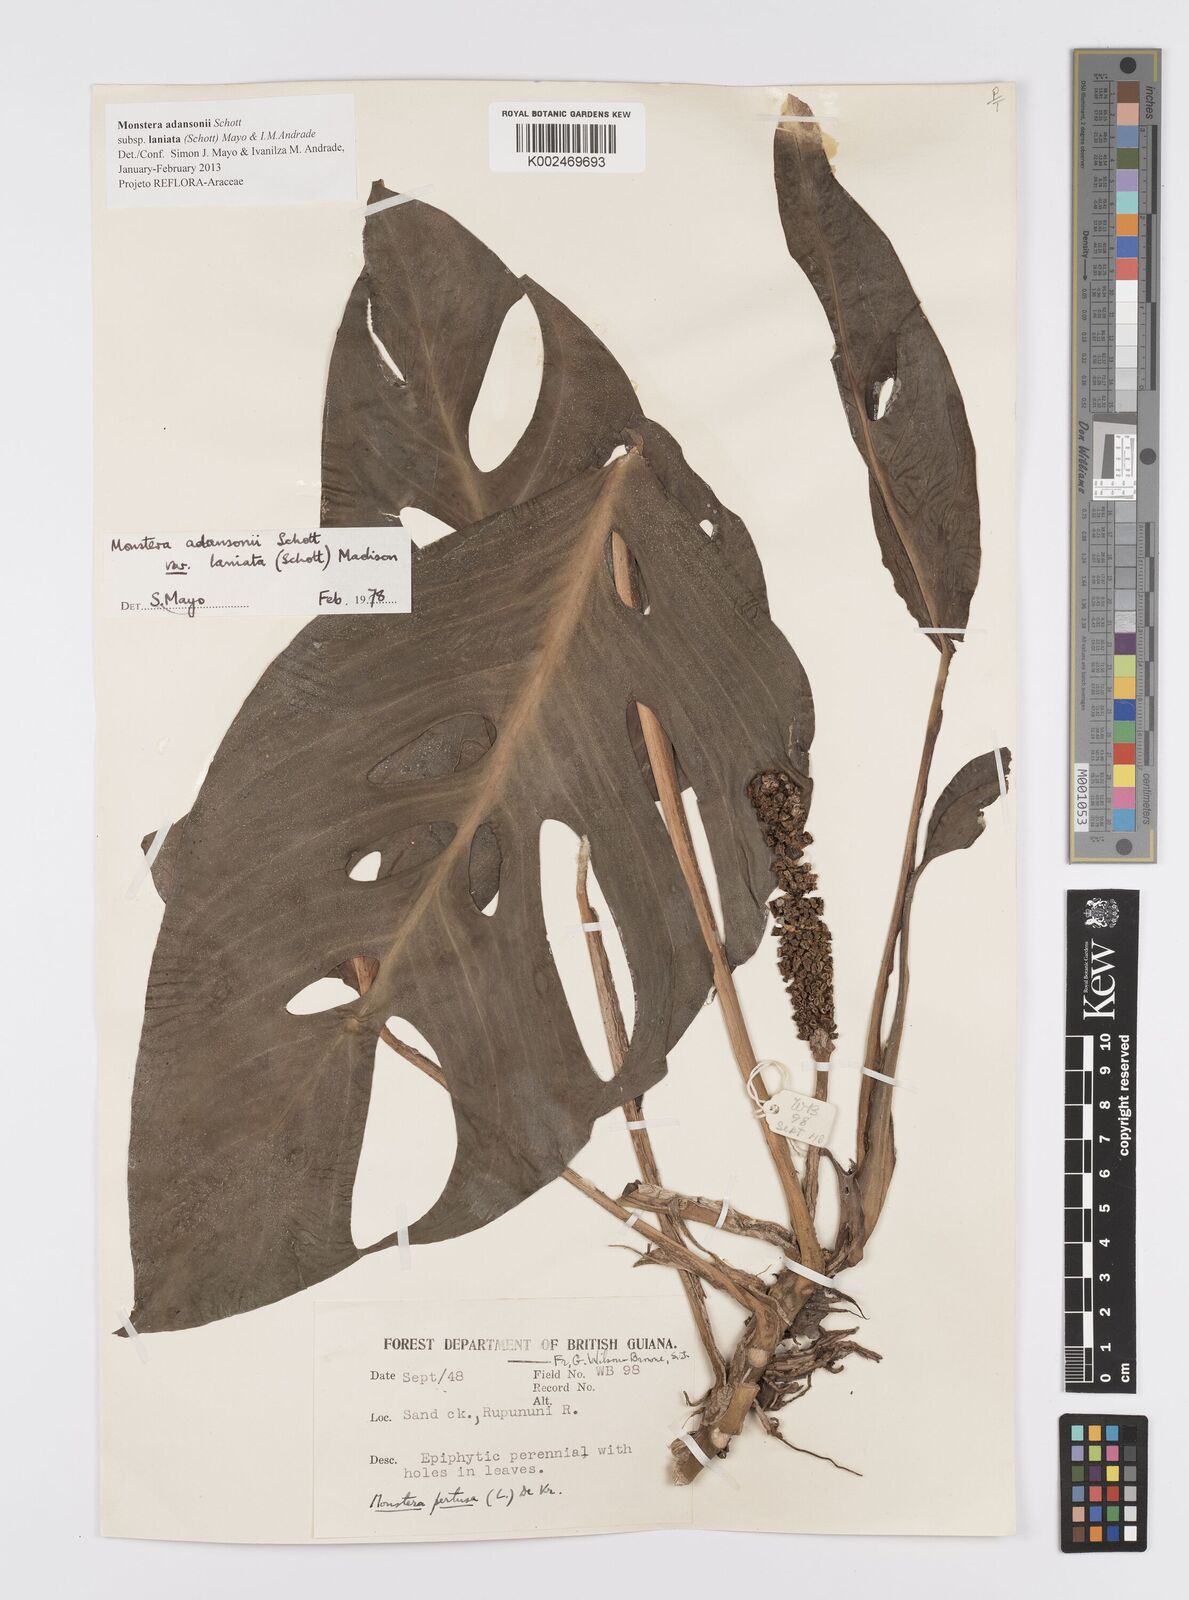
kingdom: Plantae
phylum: Tracheophyta
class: Liliopsida
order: Alismatales
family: Araceae
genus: Monstera
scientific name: Monstera adansonii
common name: Tarovine
